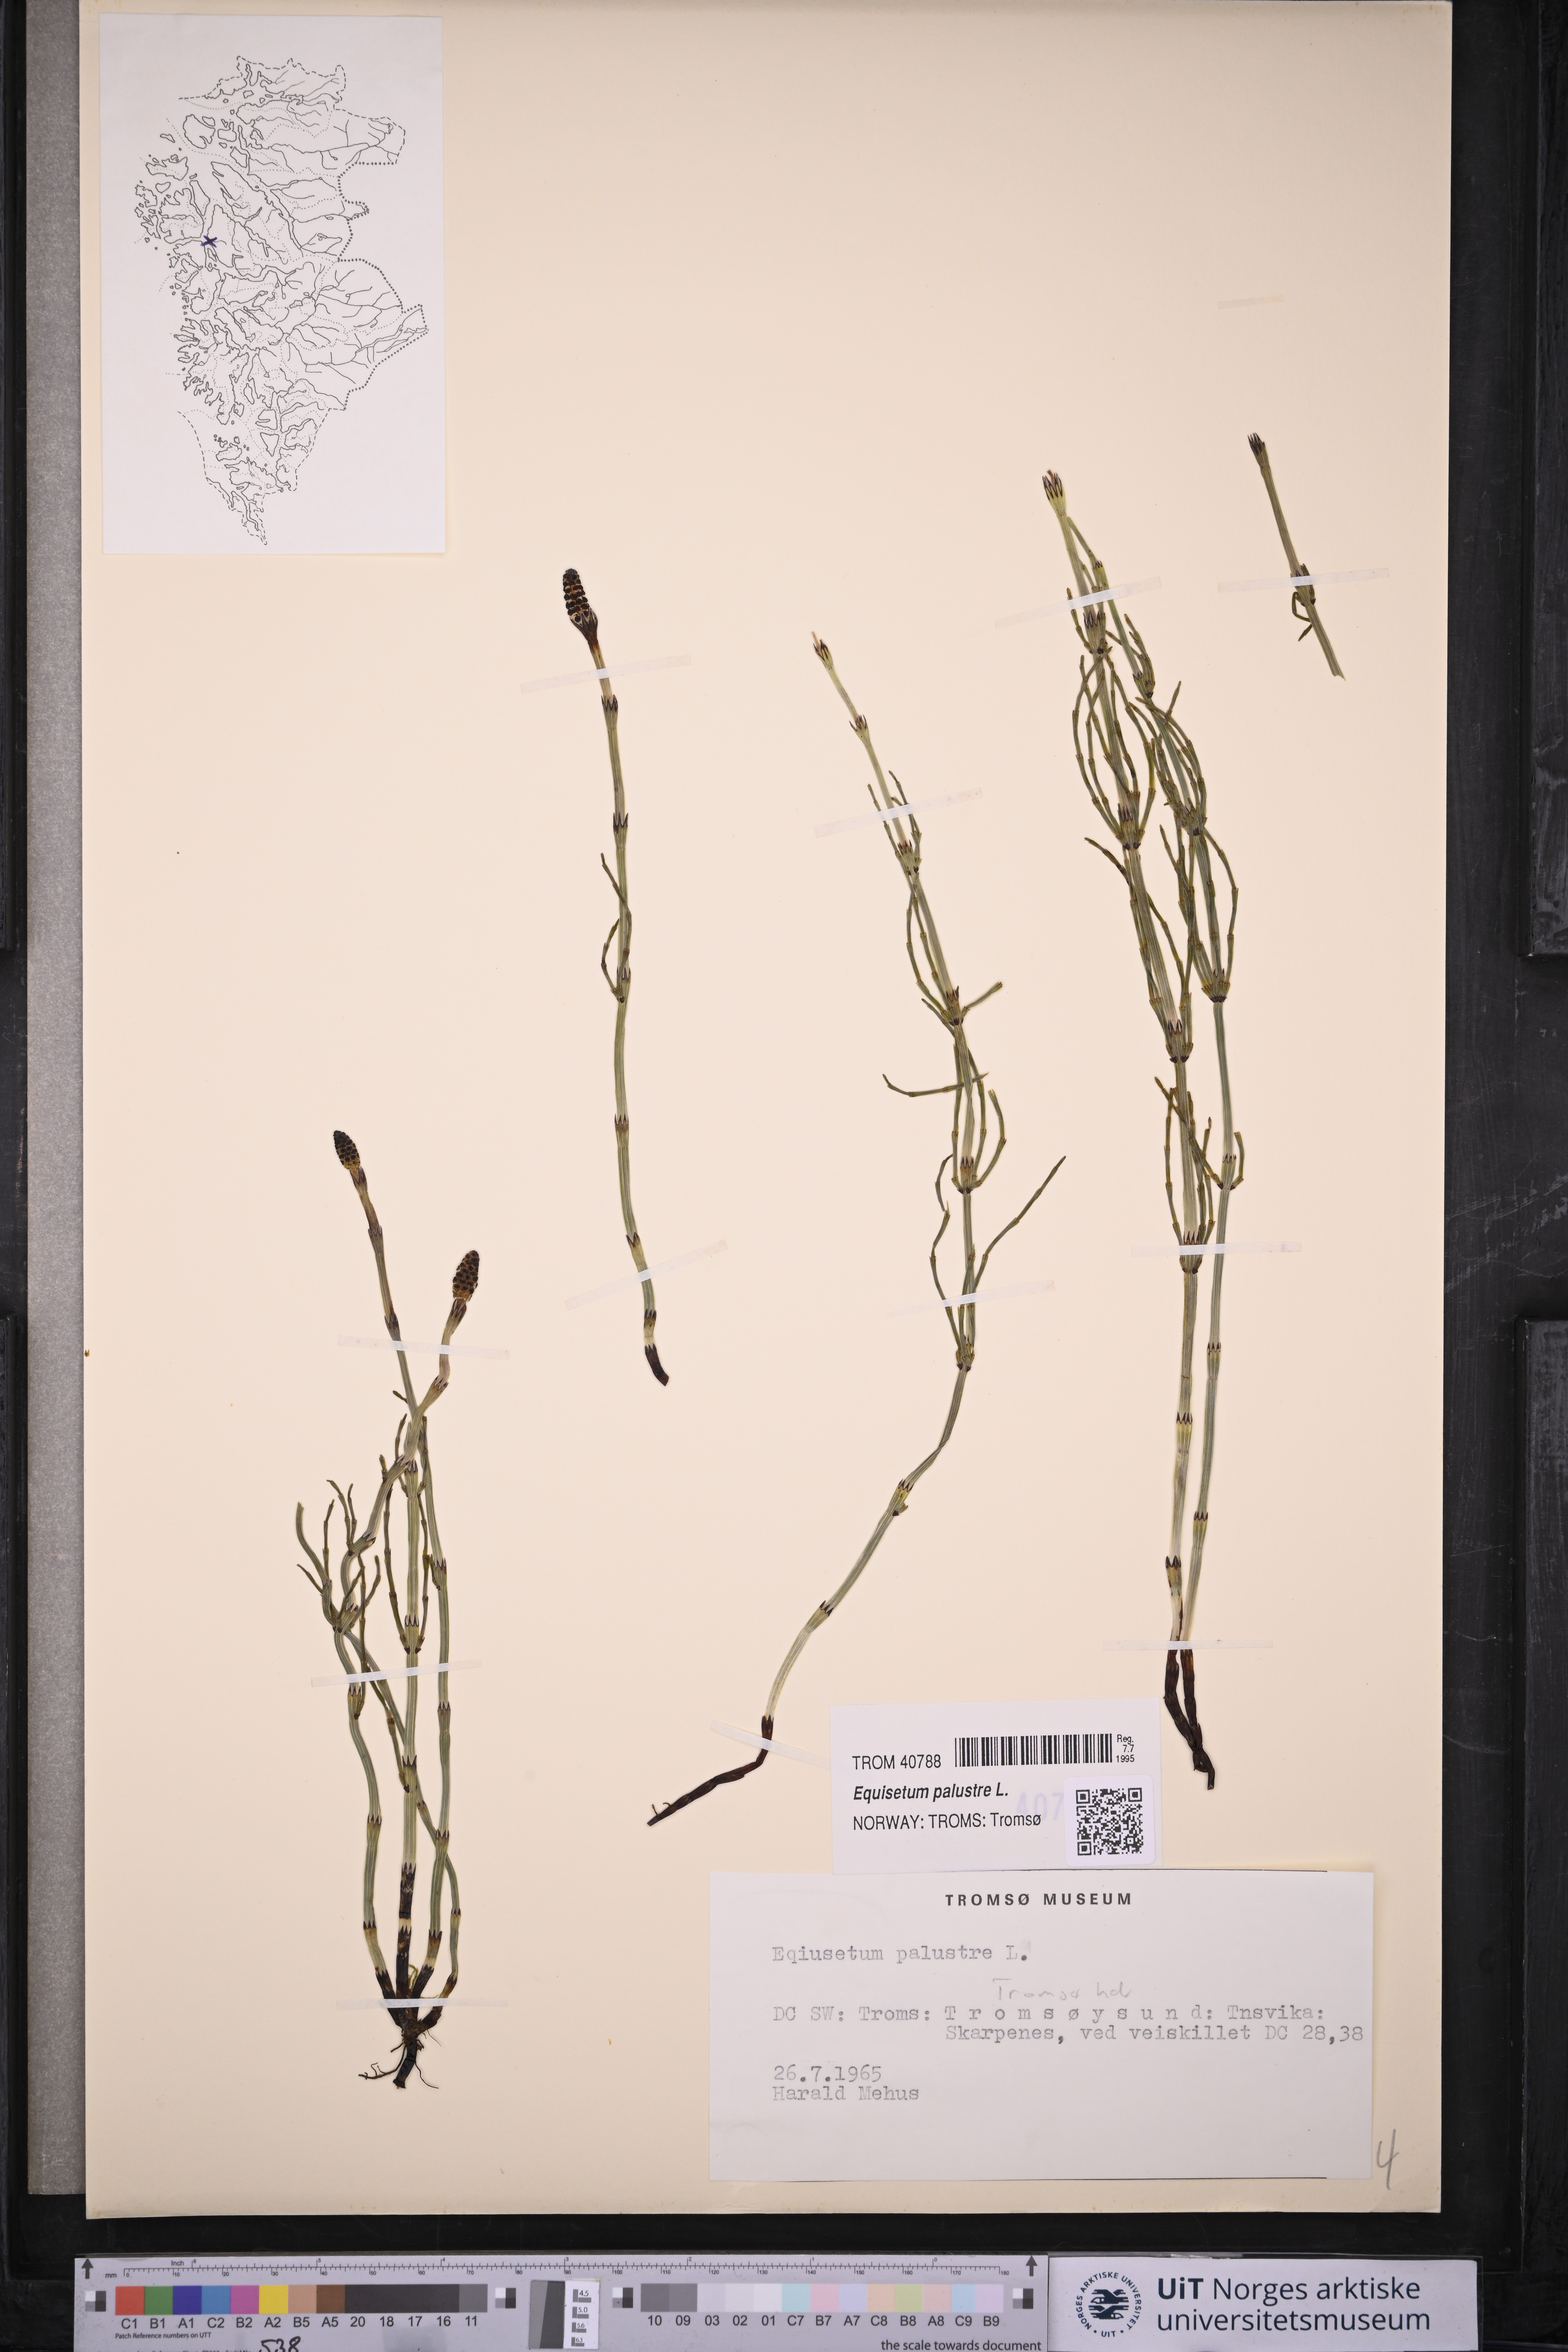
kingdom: Plantae
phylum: Tracheophyta
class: Polypodiopsida
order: Equisetales
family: Equisetaceae
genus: Equisetum
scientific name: Equisetum palustre
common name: Marsh horsetail
